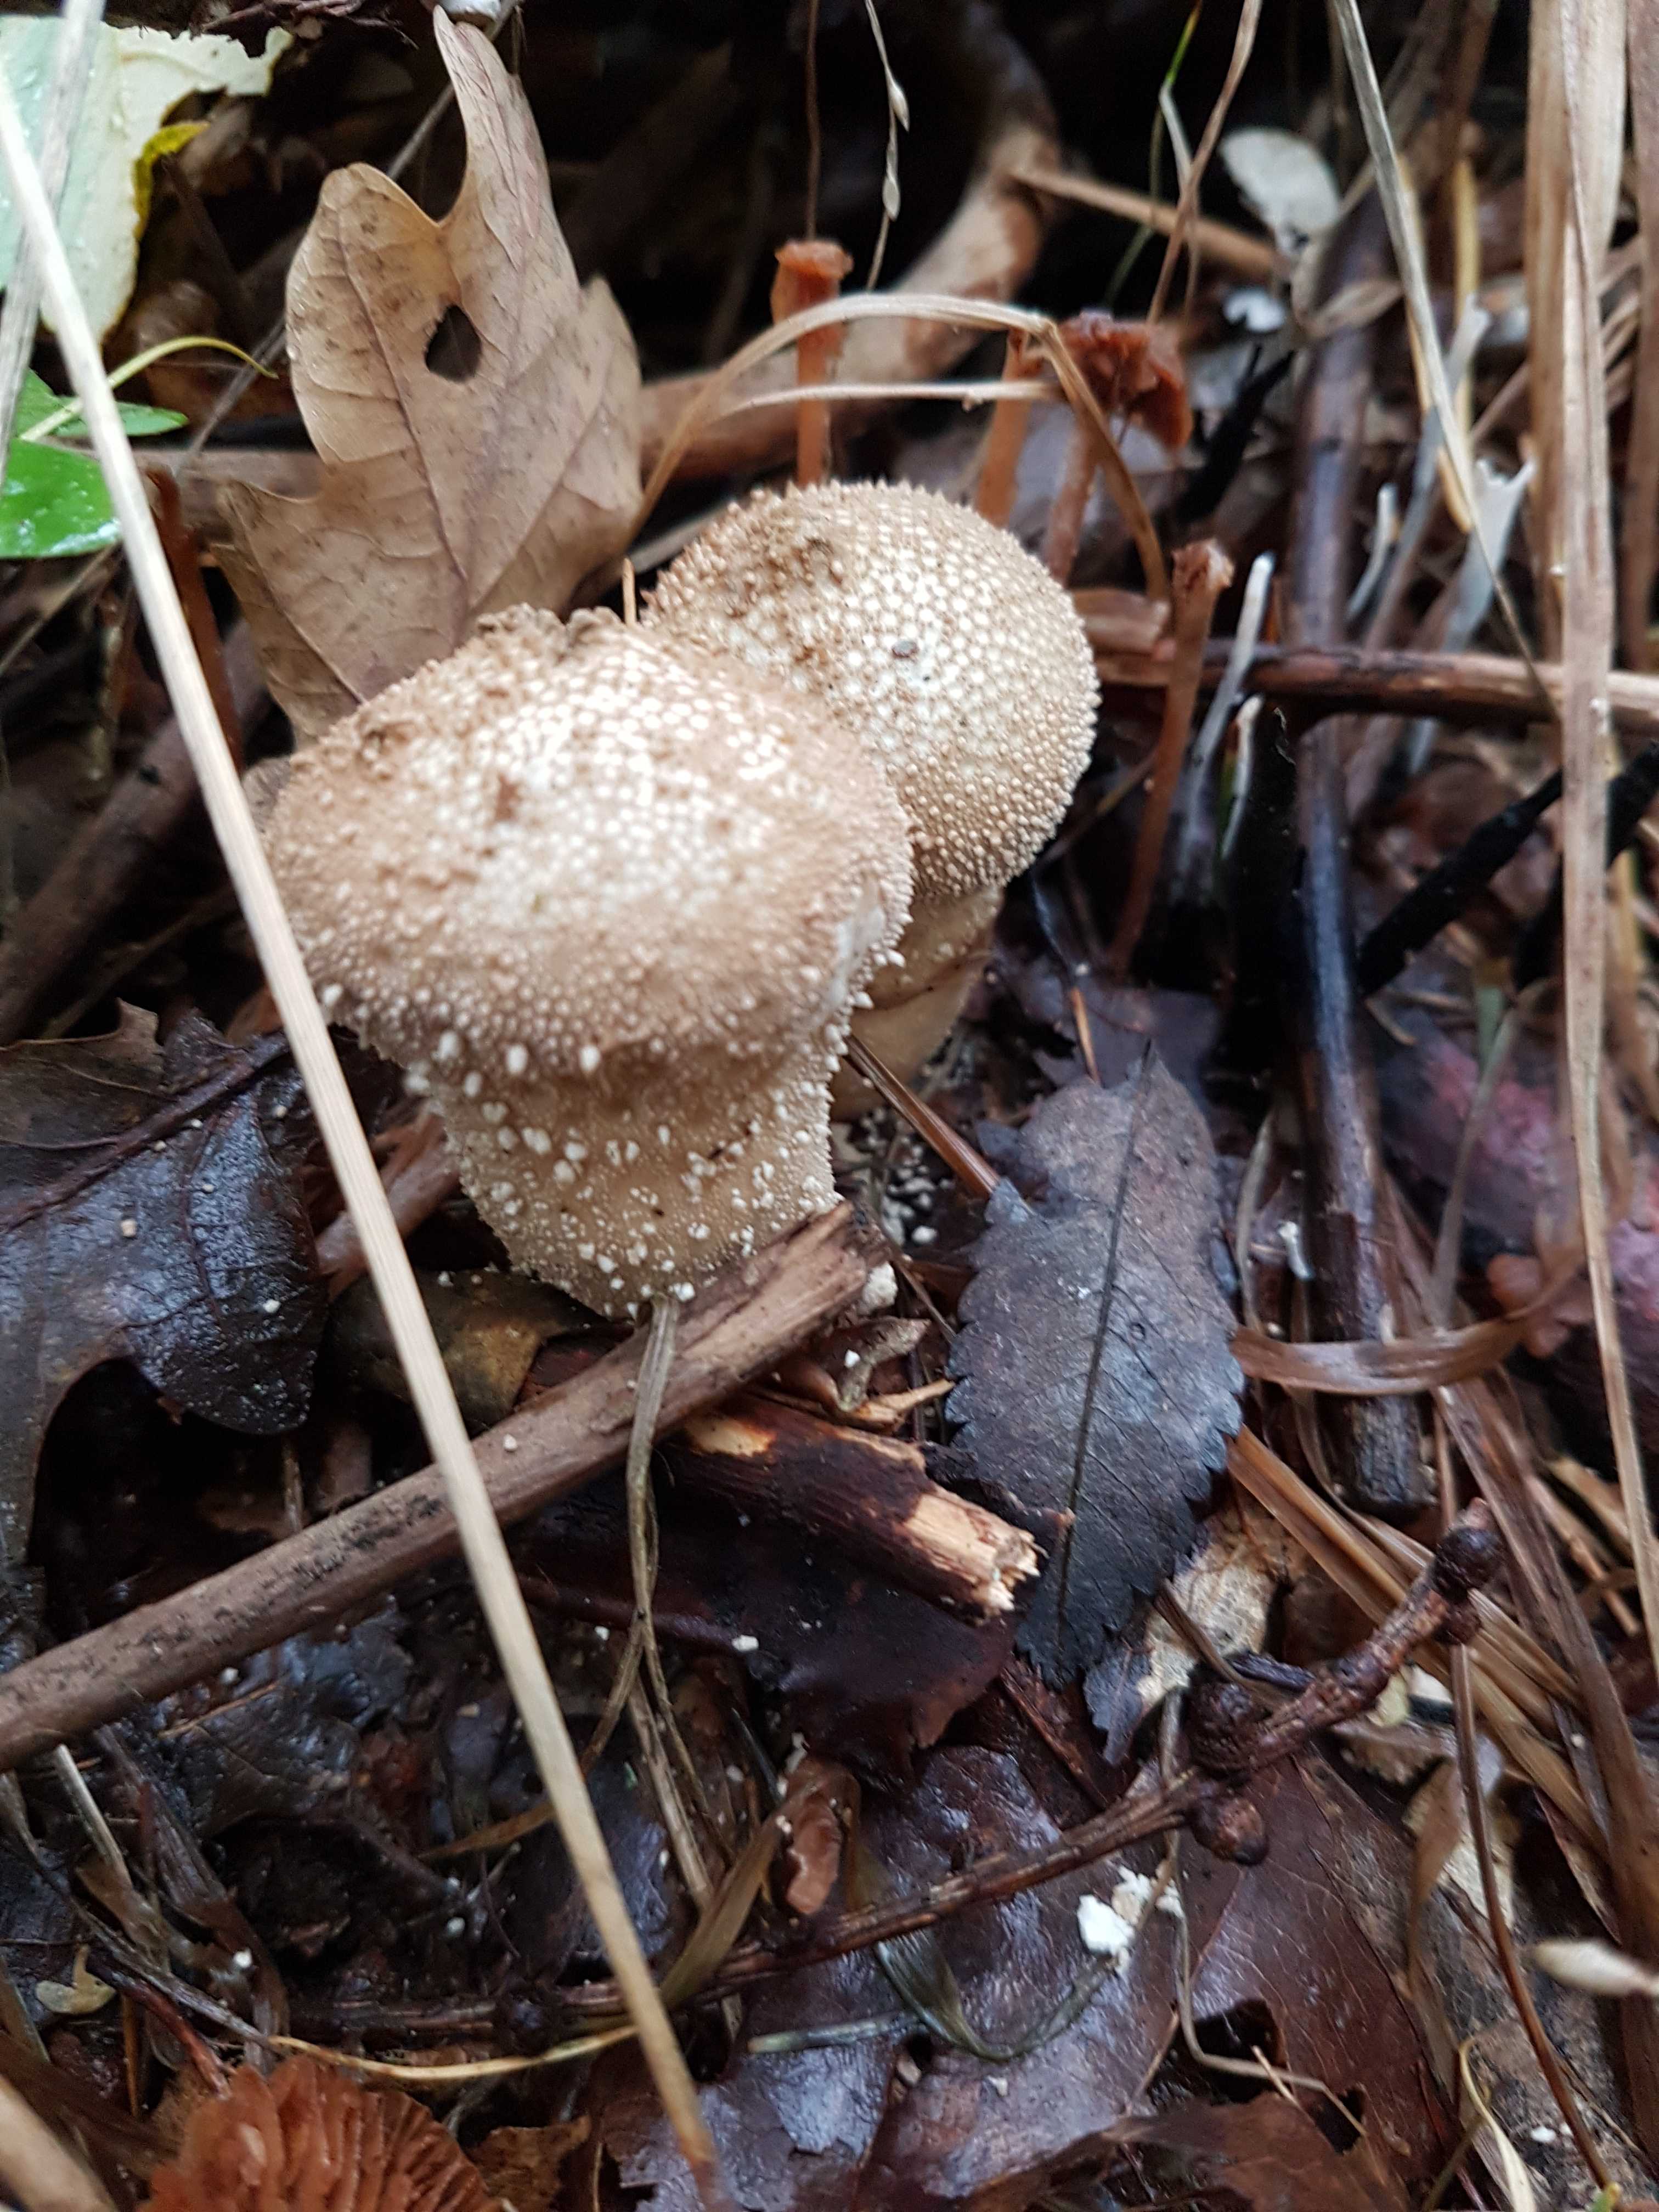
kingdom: Fungi
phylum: Basidiomycota
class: Agaricomycetes
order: Agaricales
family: Lycoperdaceae
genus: Lycoperdon
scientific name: Lycoperdon perlatum
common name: krystal-støvbold
